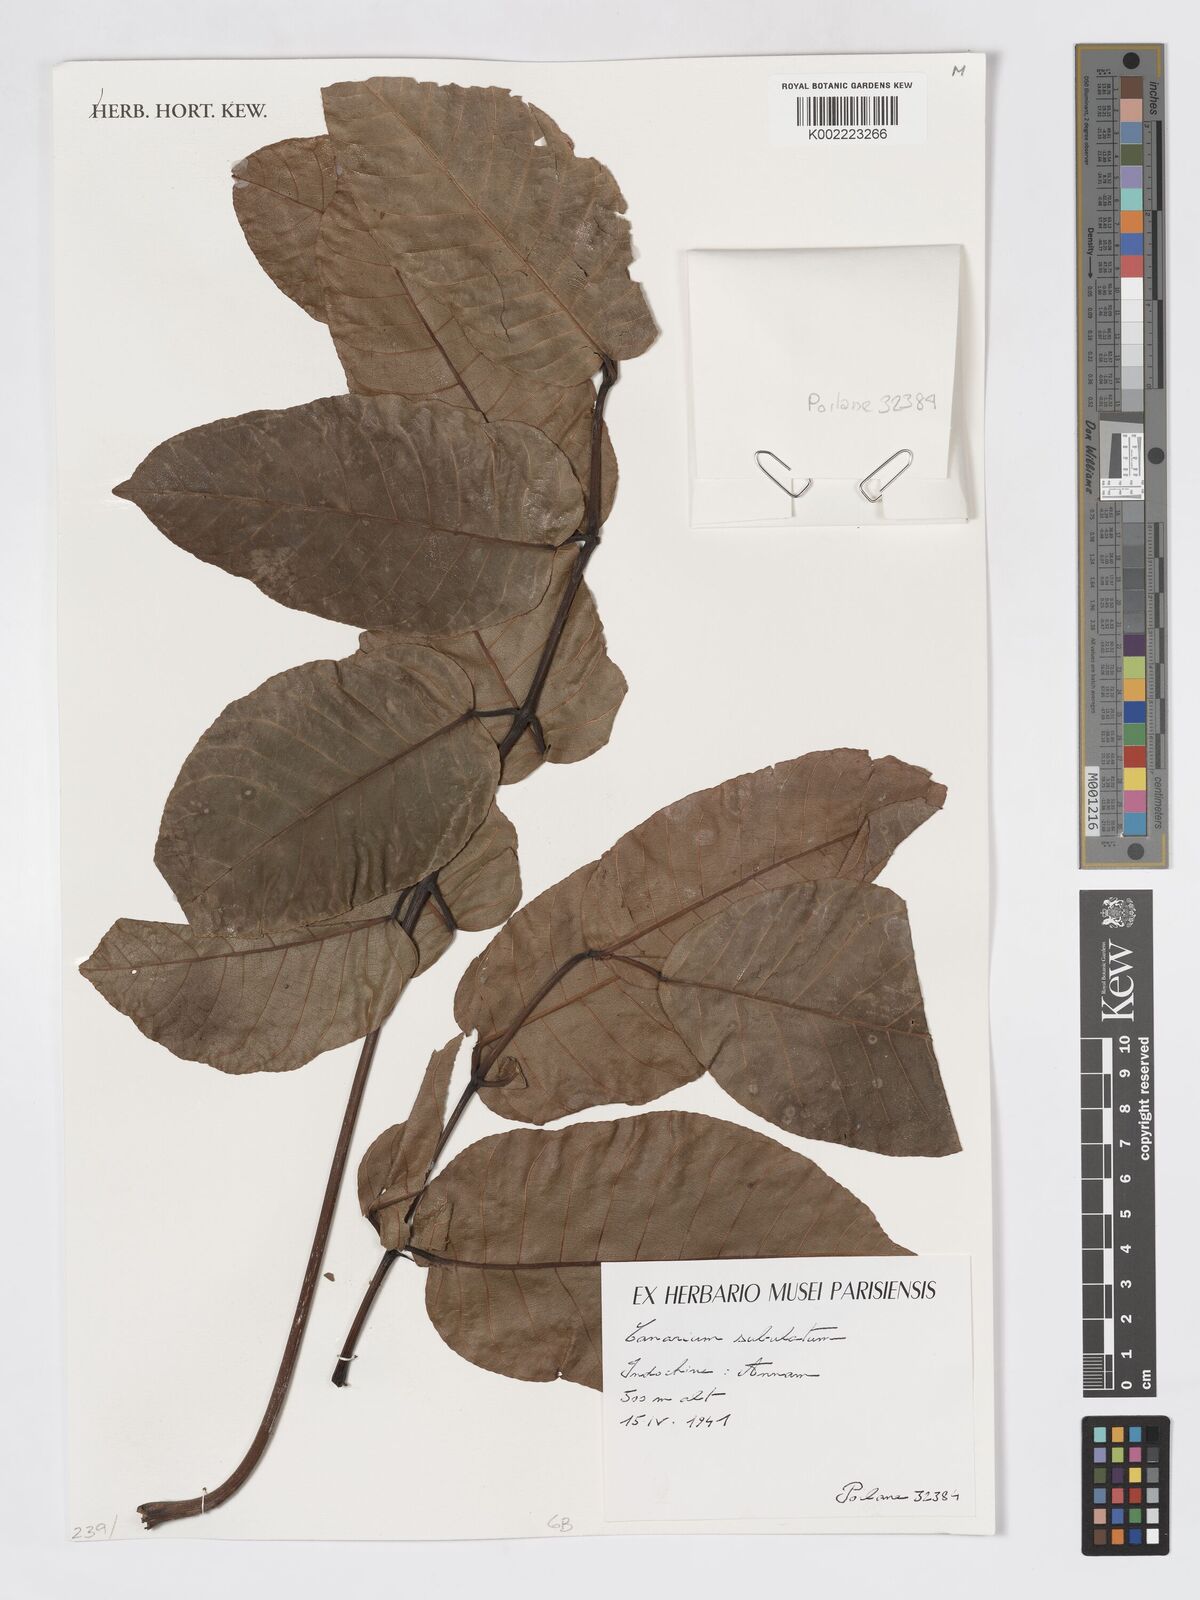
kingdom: Plantae
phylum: Tracheophyta
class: Magnoliopsida
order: Sapindales
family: Burseraceae
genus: Canarium
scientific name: Canarium subulatum
